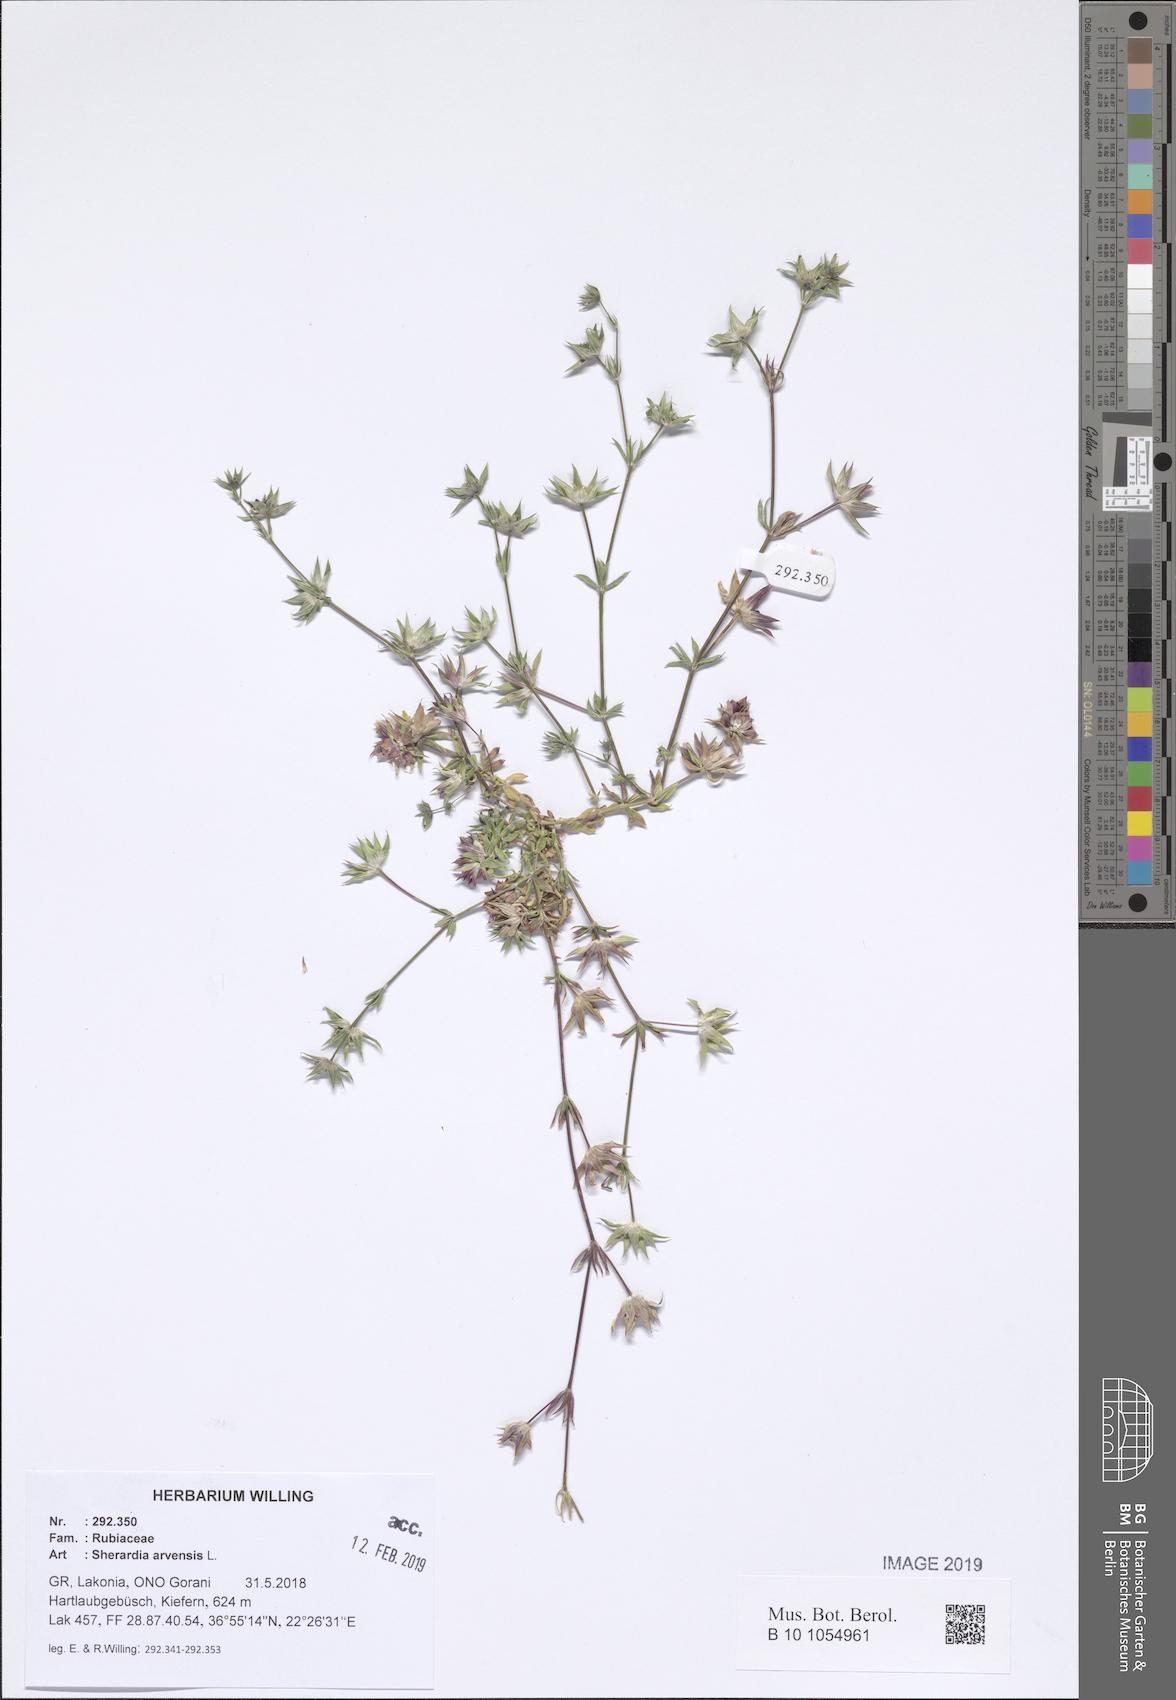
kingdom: Plantae
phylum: Tracheophyta
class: Magnoliopsida
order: Gentianales
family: Rubiaceae
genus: Sherardia
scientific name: Sherardia arvensis
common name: Field madder
